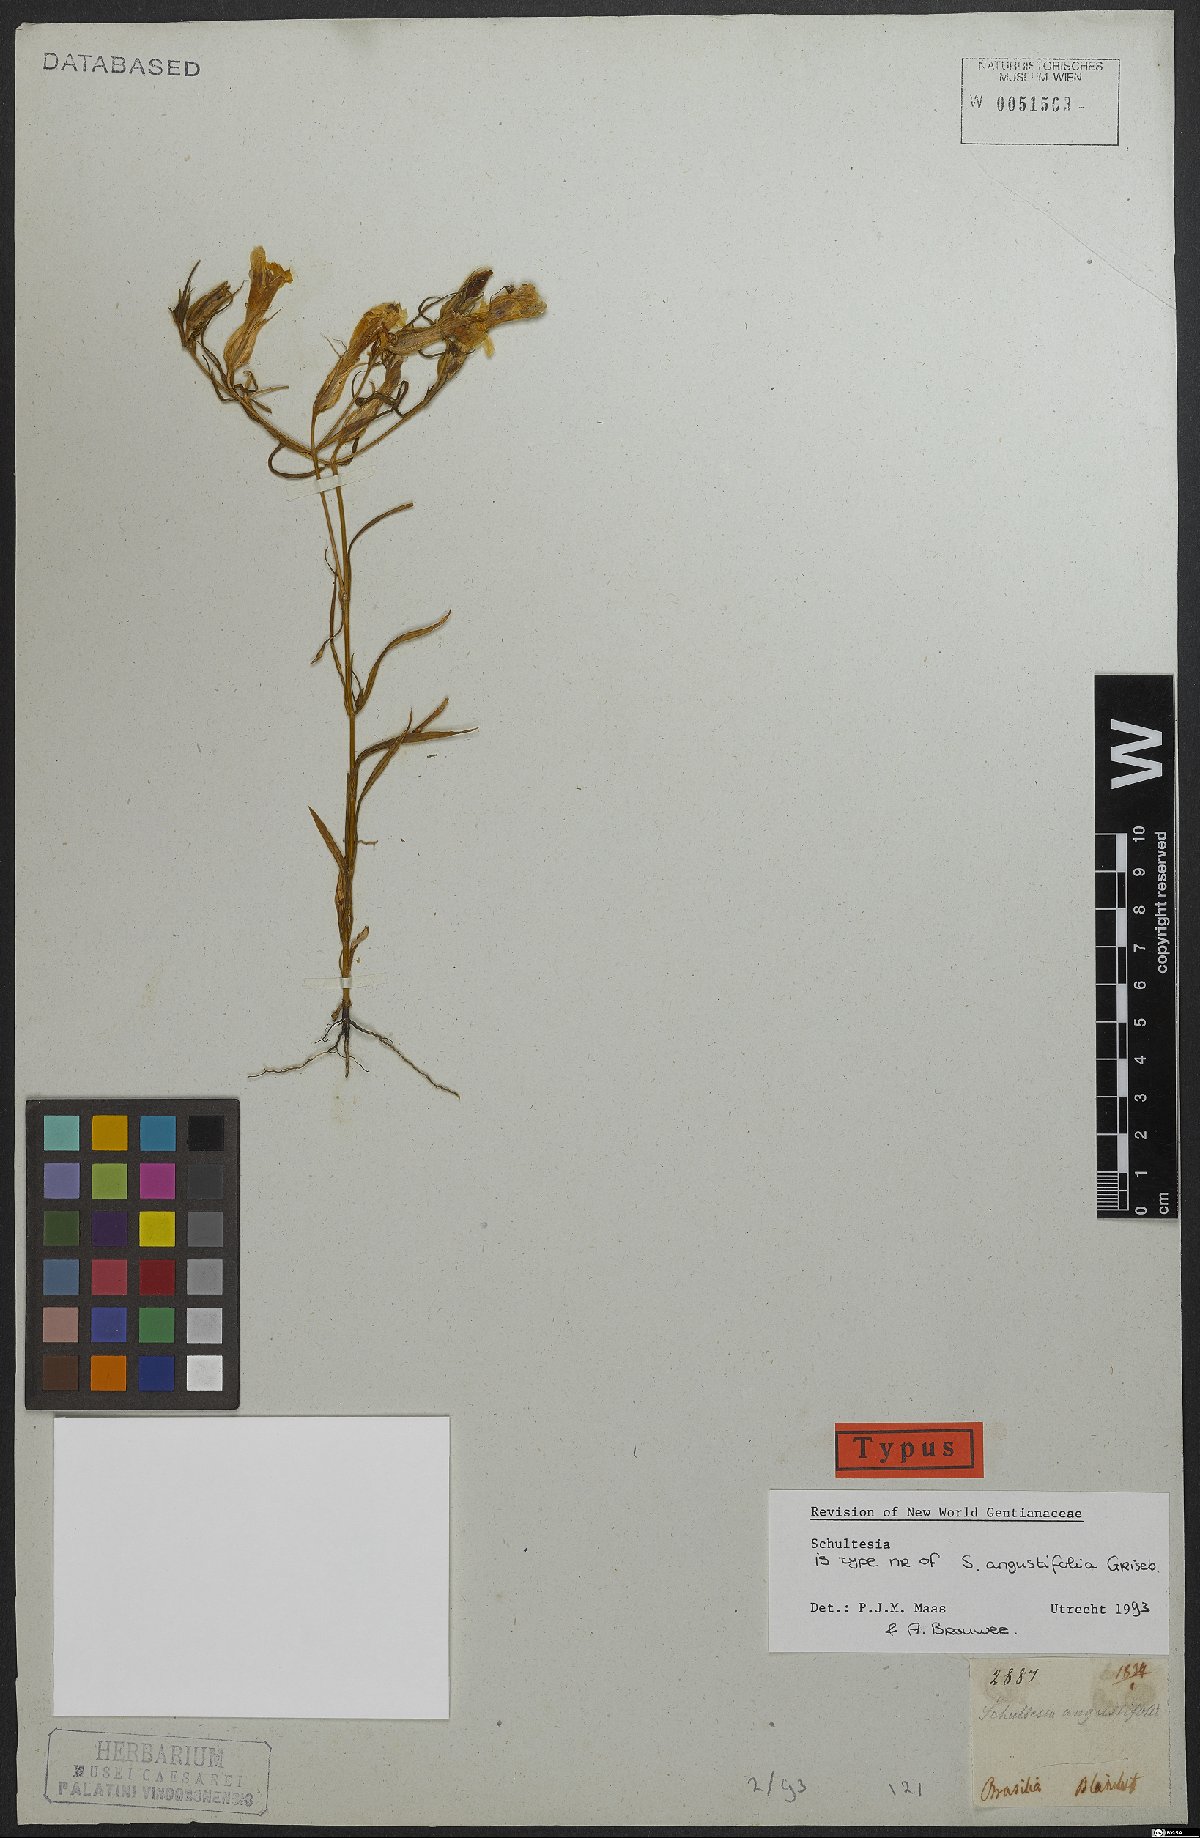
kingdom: Plantae
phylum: Tracheophyta
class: Magnoliopsida
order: Gentianales
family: Gentianaceae
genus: Schultesia
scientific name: Schultesia angustifolia
